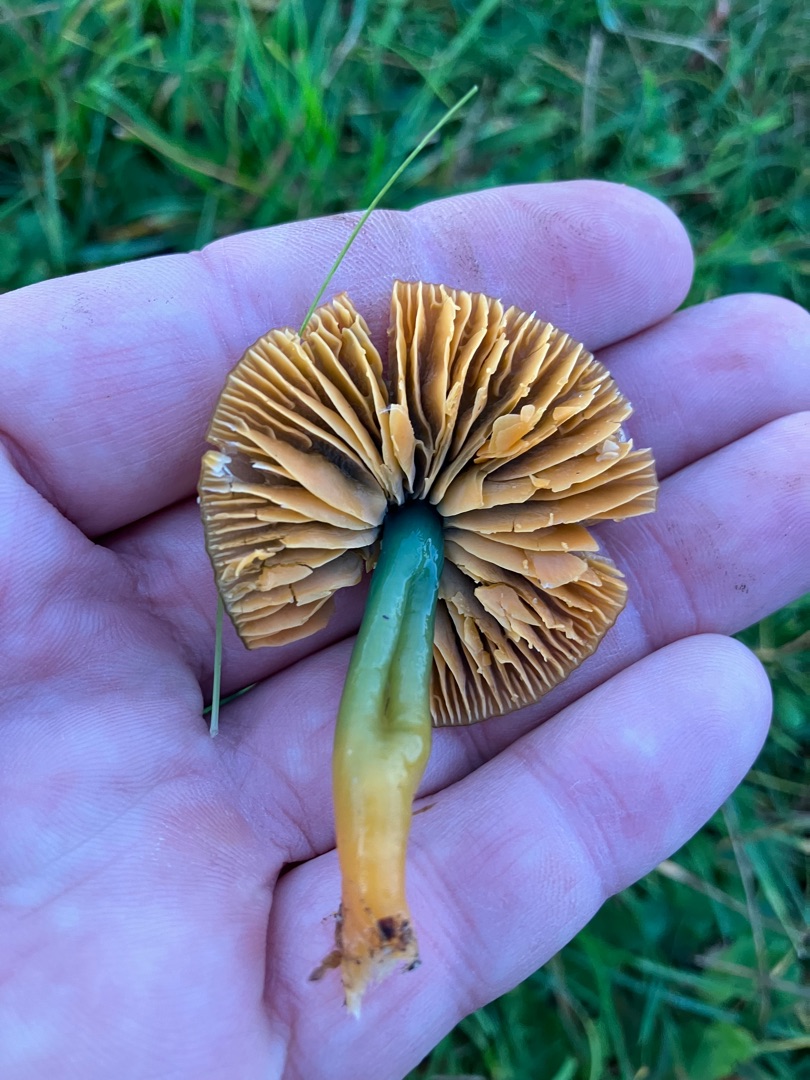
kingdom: Fungi
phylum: Basidiomycota
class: Agaricomycetes
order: Agaricales
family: Hygrophoraceae
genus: Gliophorus
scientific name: Gliophorus psittacinus
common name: Papegøje-vokshat
